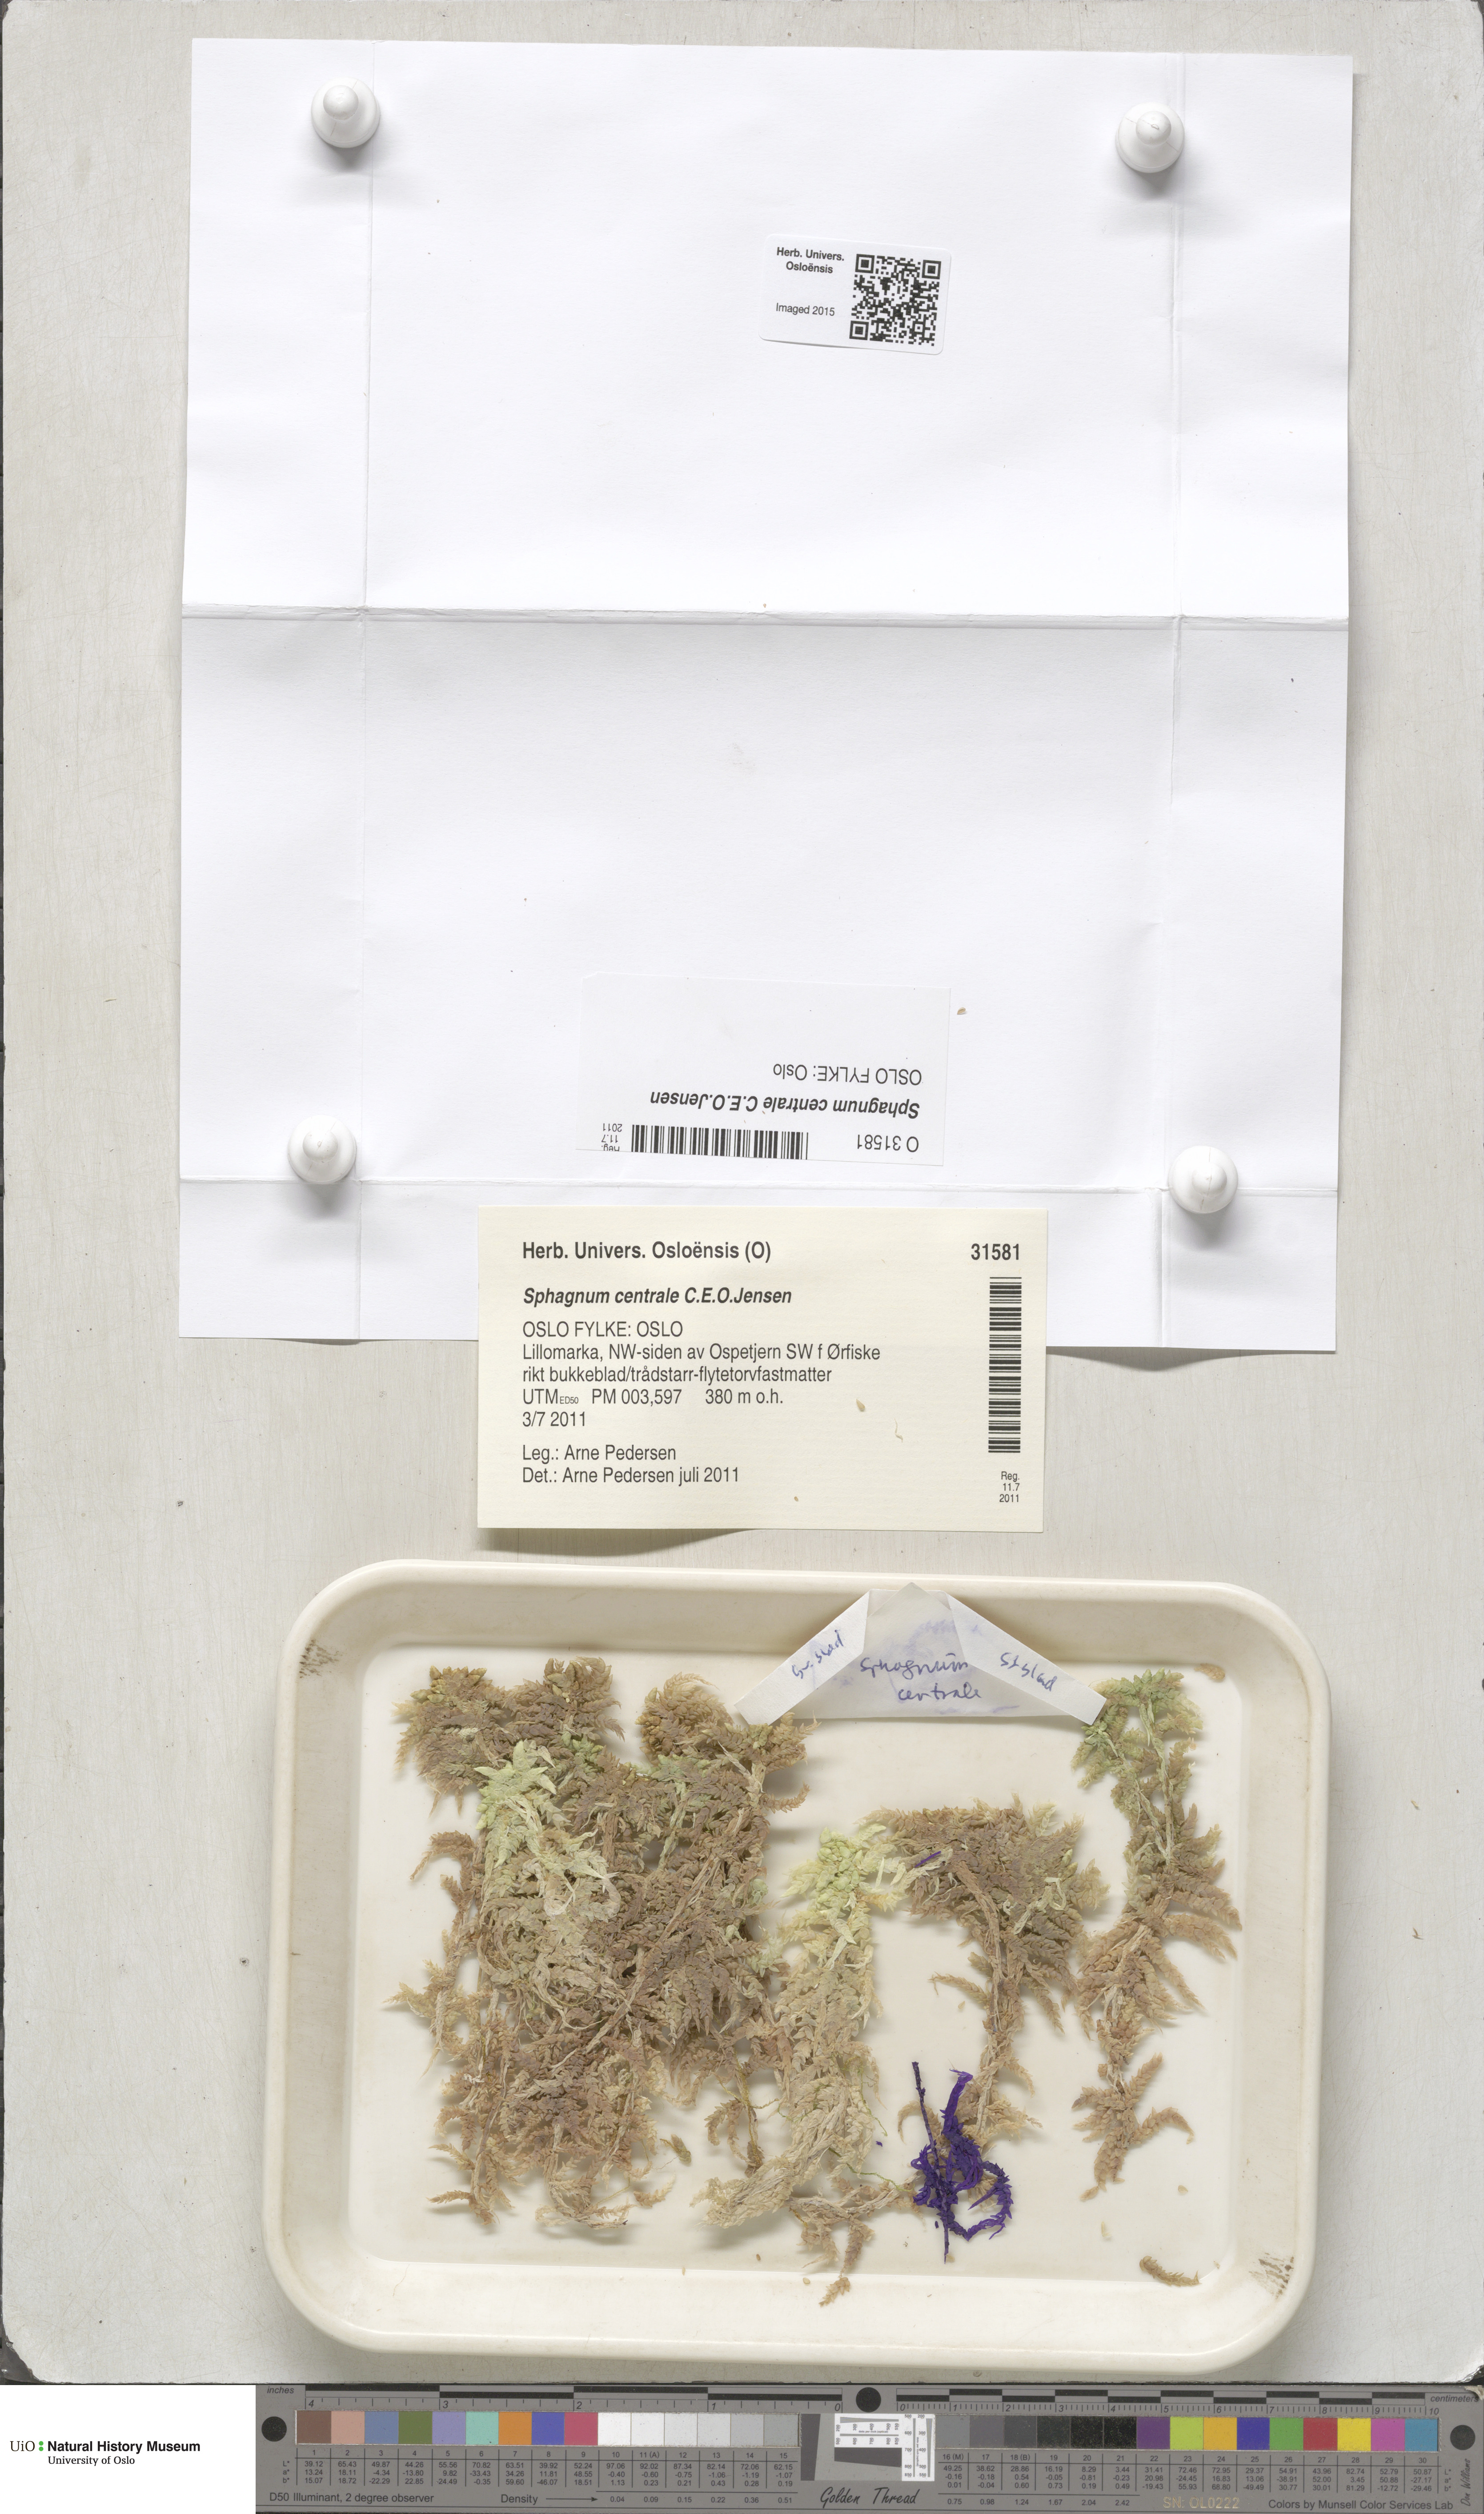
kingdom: Plantae
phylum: Bryophyta
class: Sphagnopsida
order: Sphagnales
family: Sphagnaceae
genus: Sphagnum
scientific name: Sphagnum centrale
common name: Central peat moss
